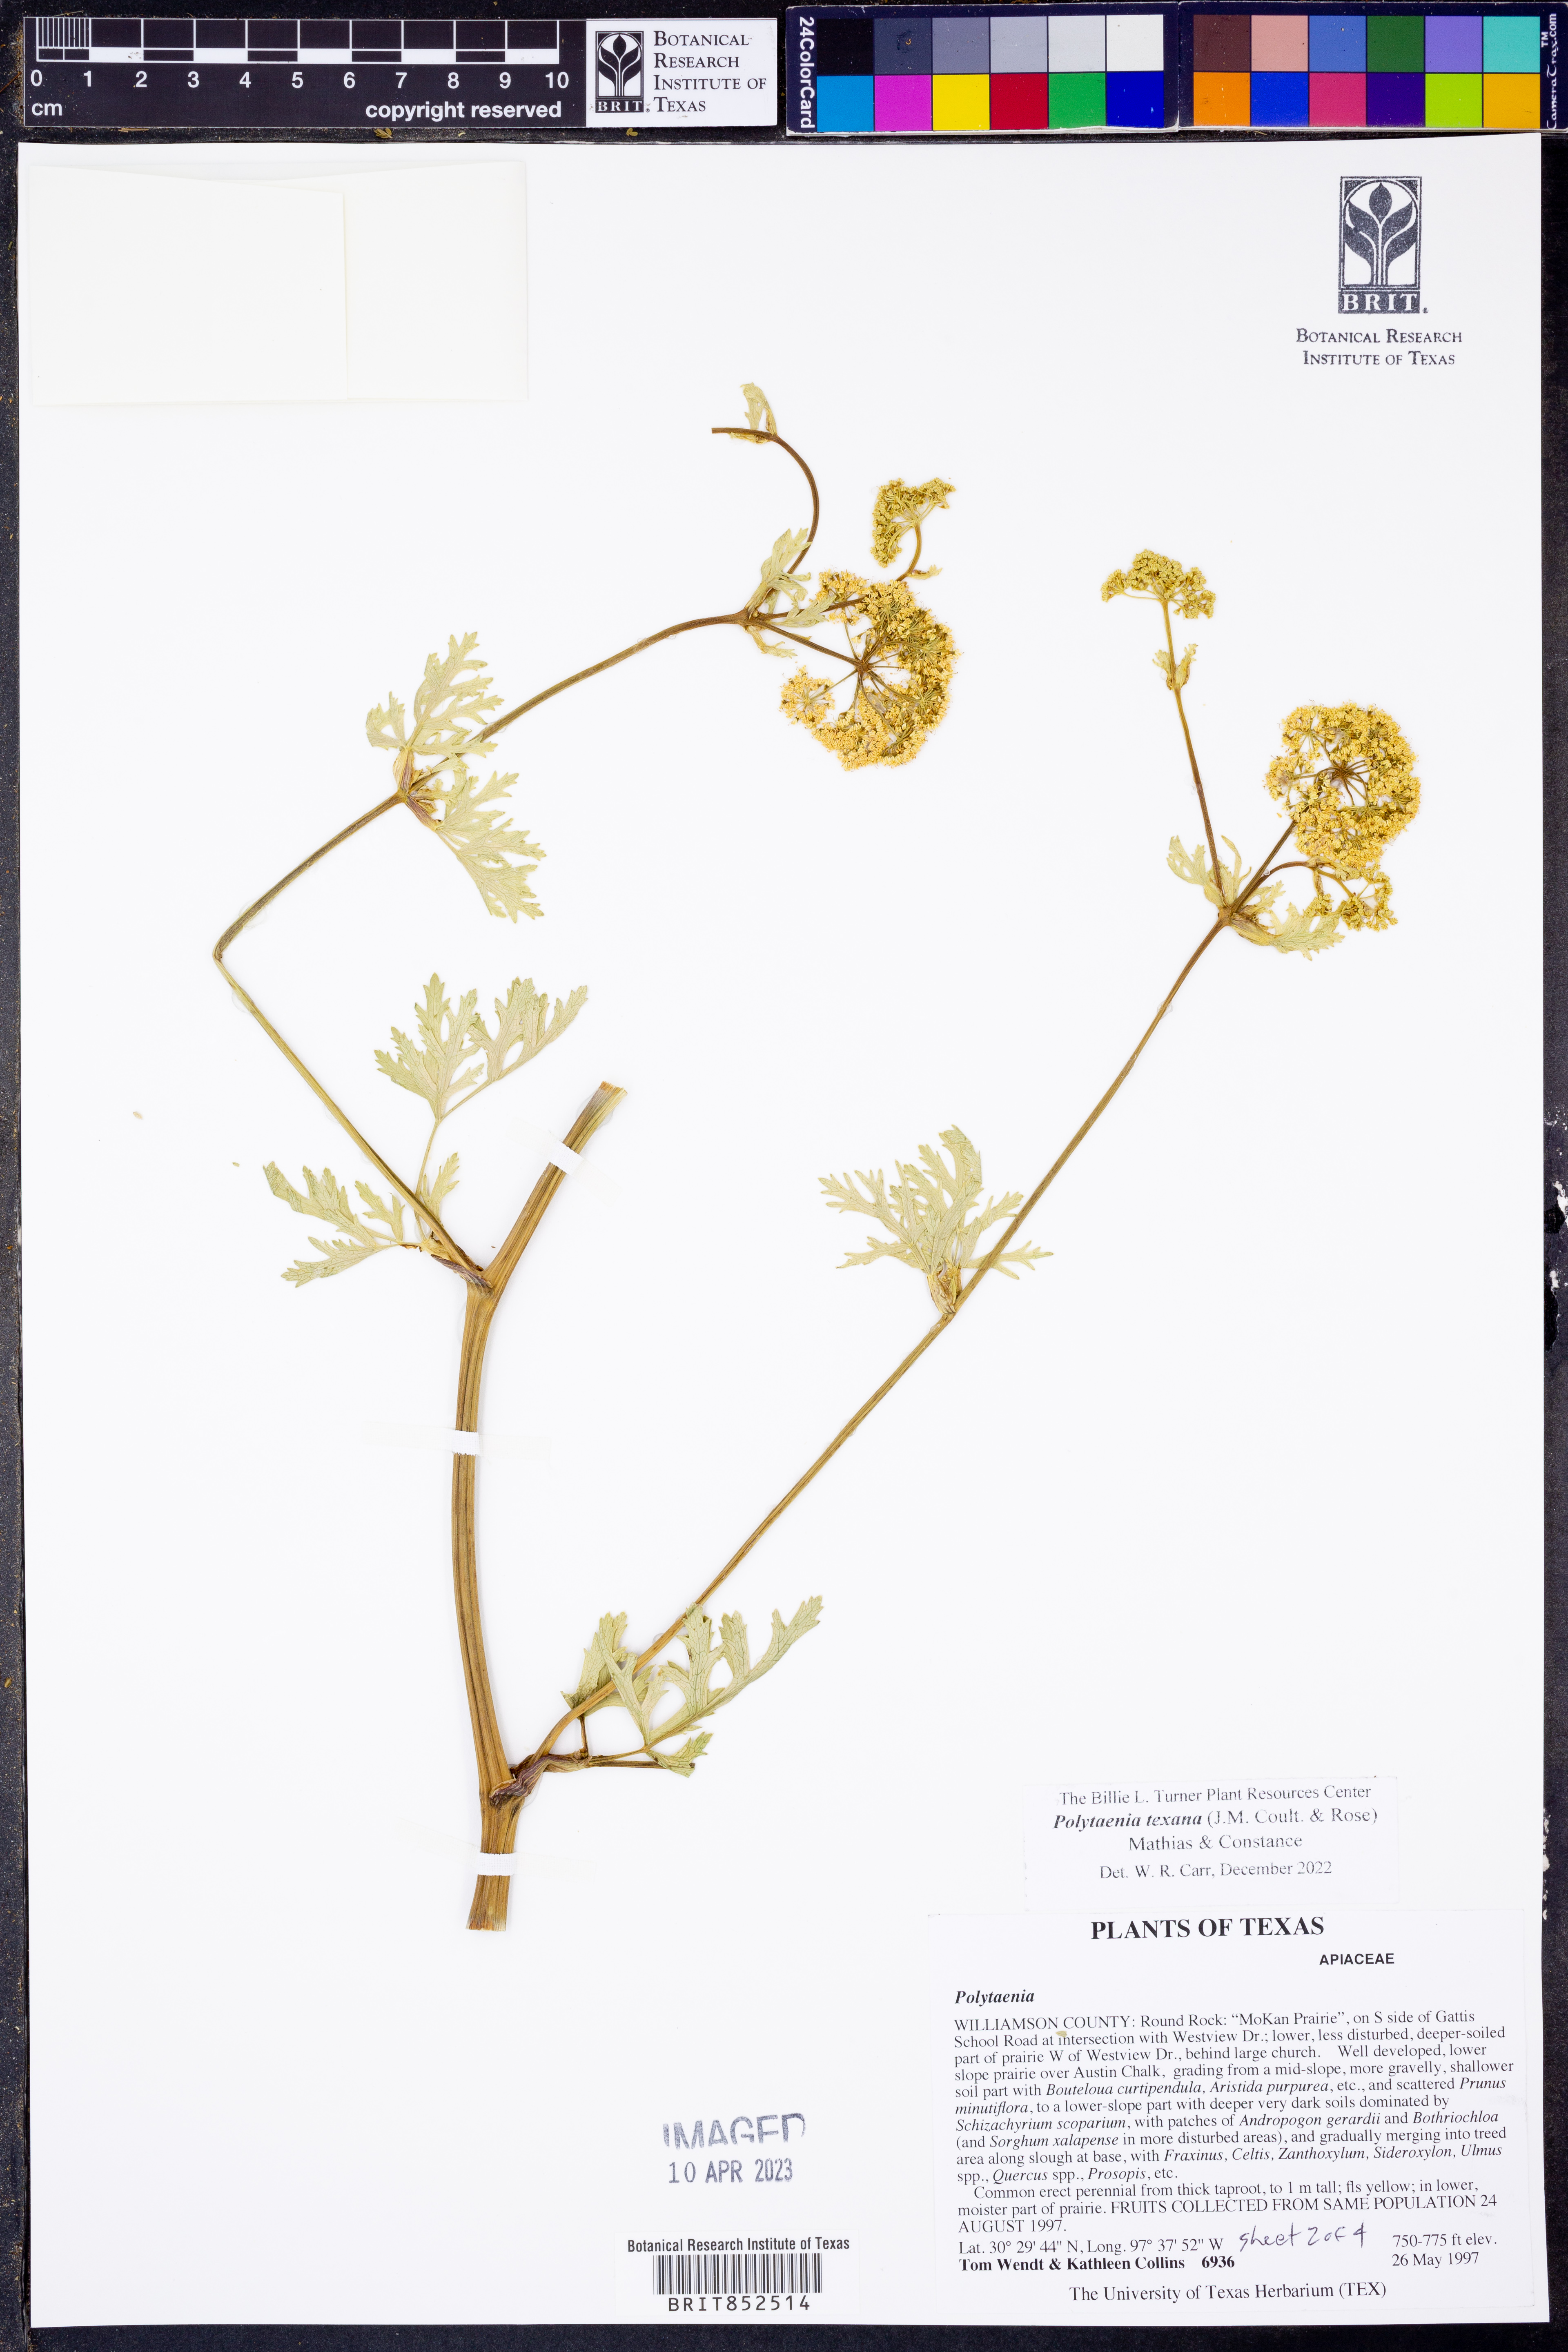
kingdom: Plantae
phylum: Tracheophyta
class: Magnoliopsida
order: Apiales
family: Apiaceae
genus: Polytaenia
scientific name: Polytaenia texana
